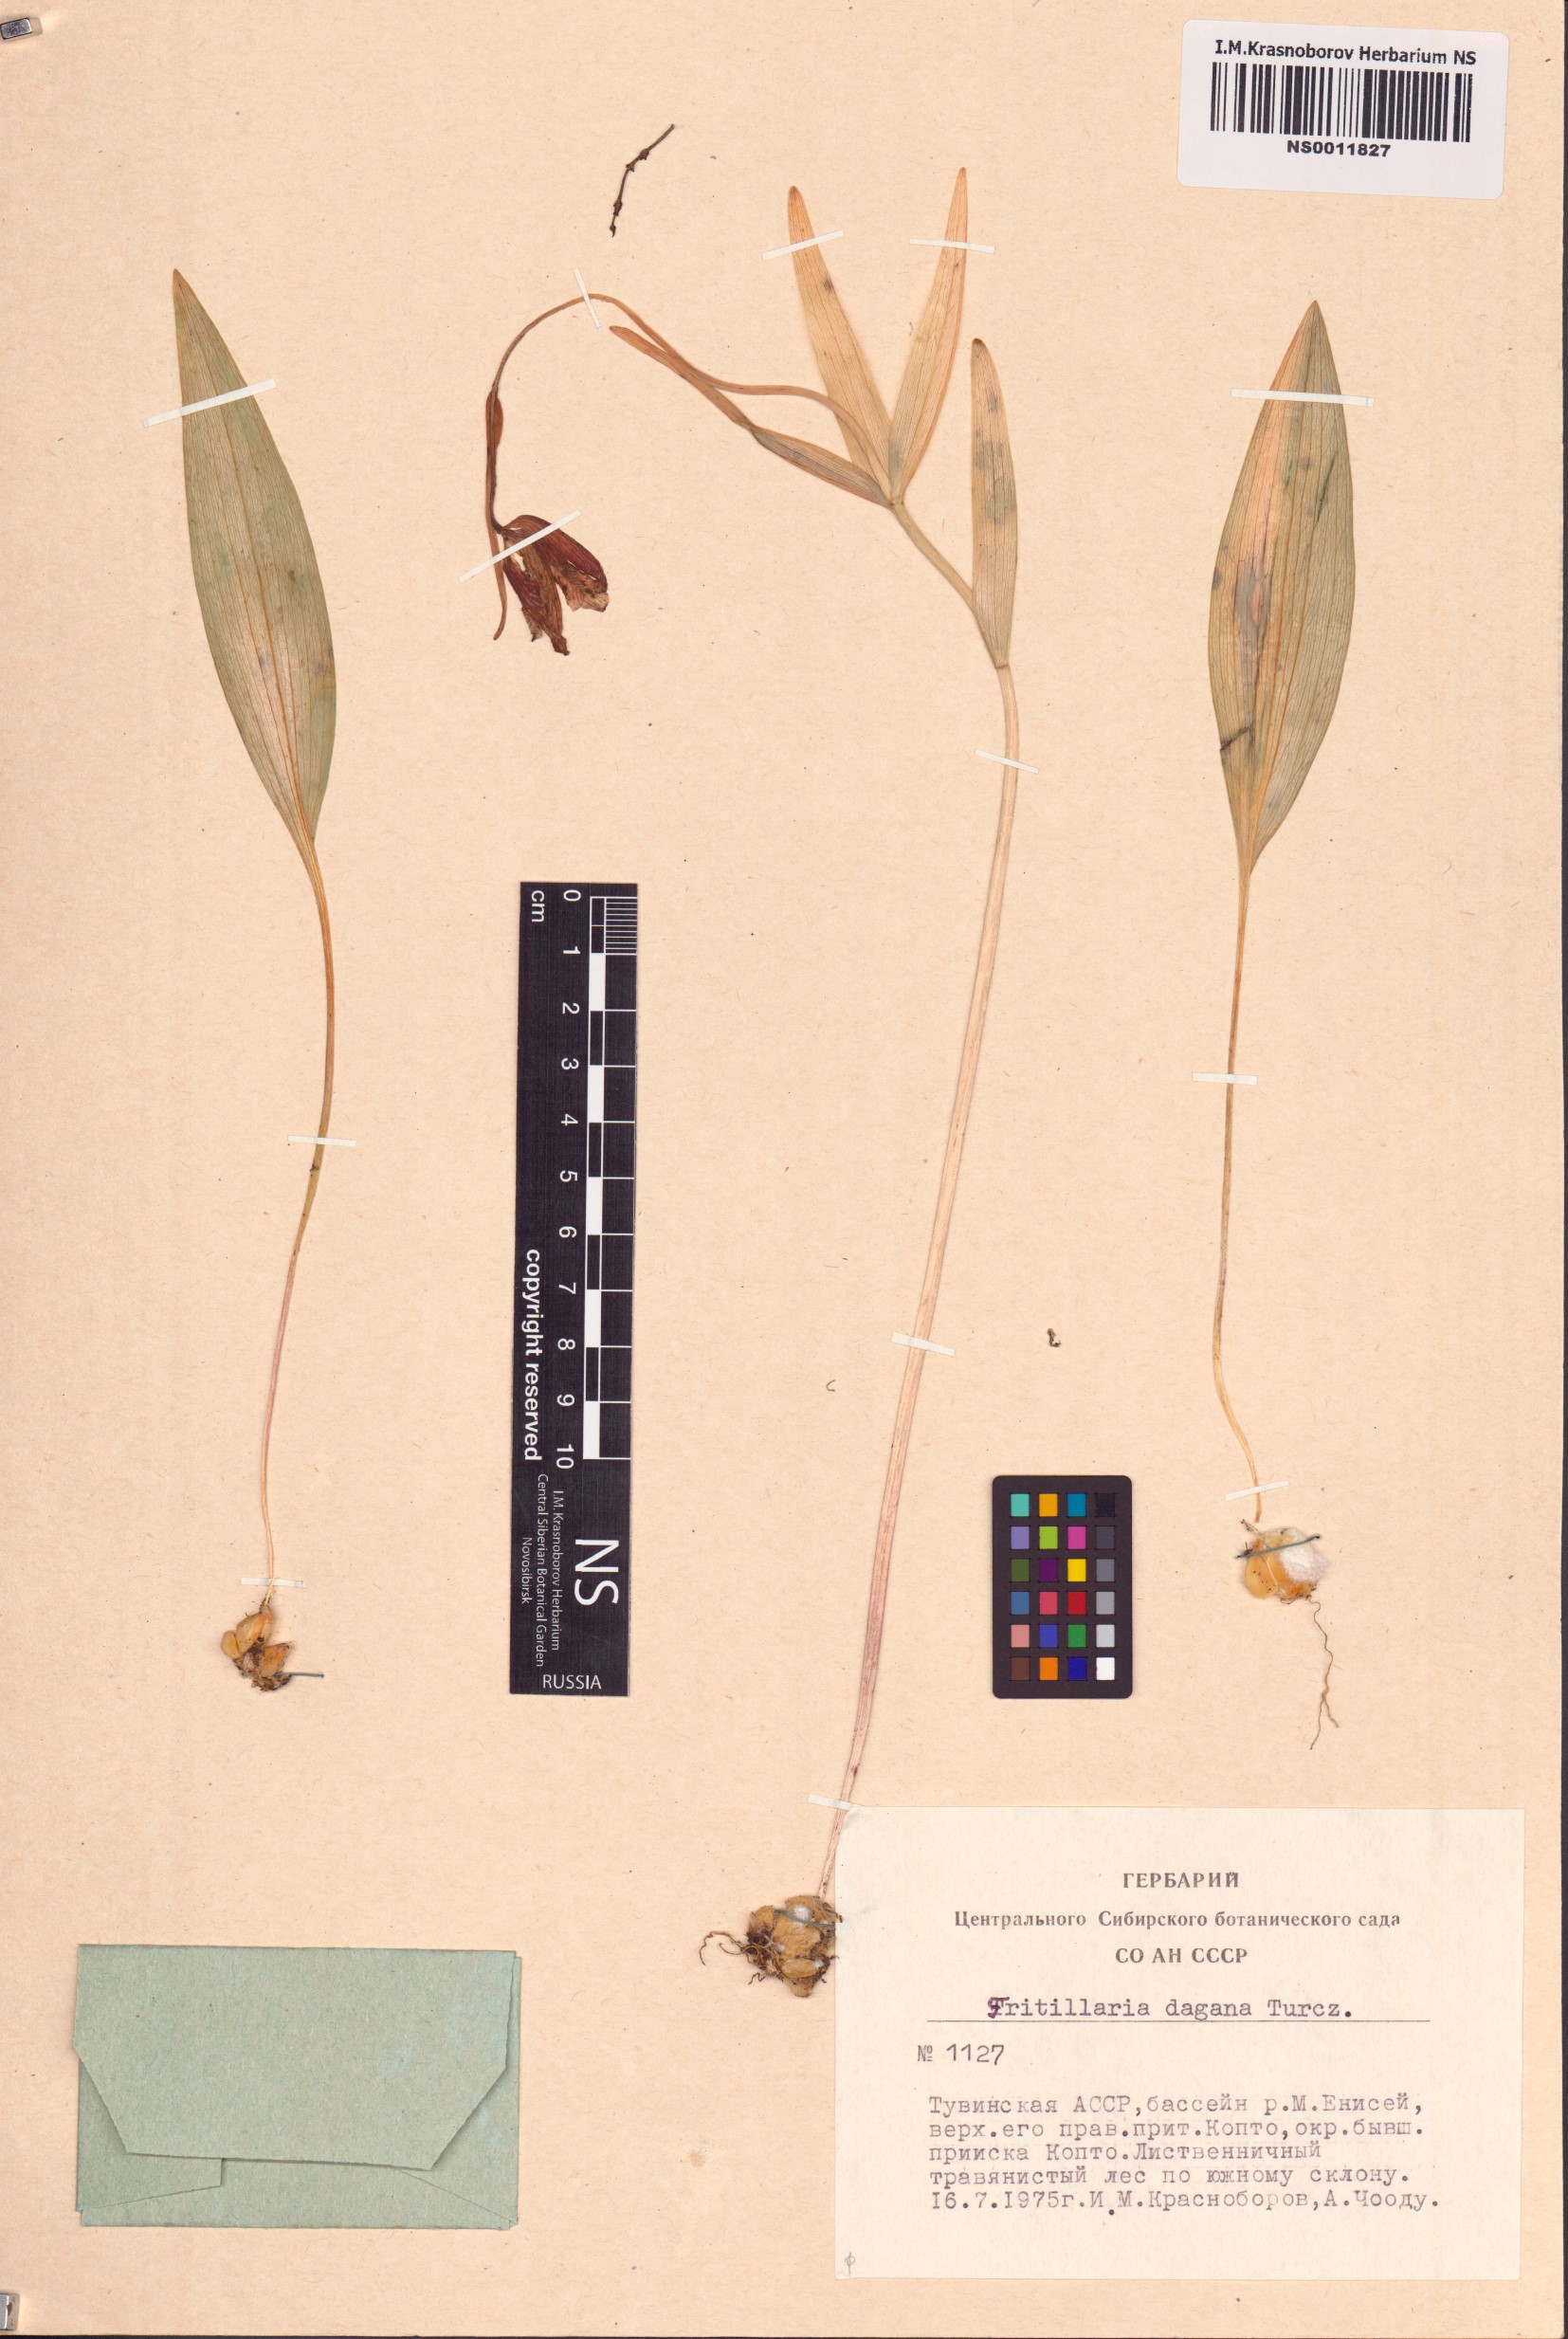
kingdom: Plantae
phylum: Tracheophyta
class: Liliopsida
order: Liliales
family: Liliaceae
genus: Fritillaria
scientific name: Fritillaria dagana
